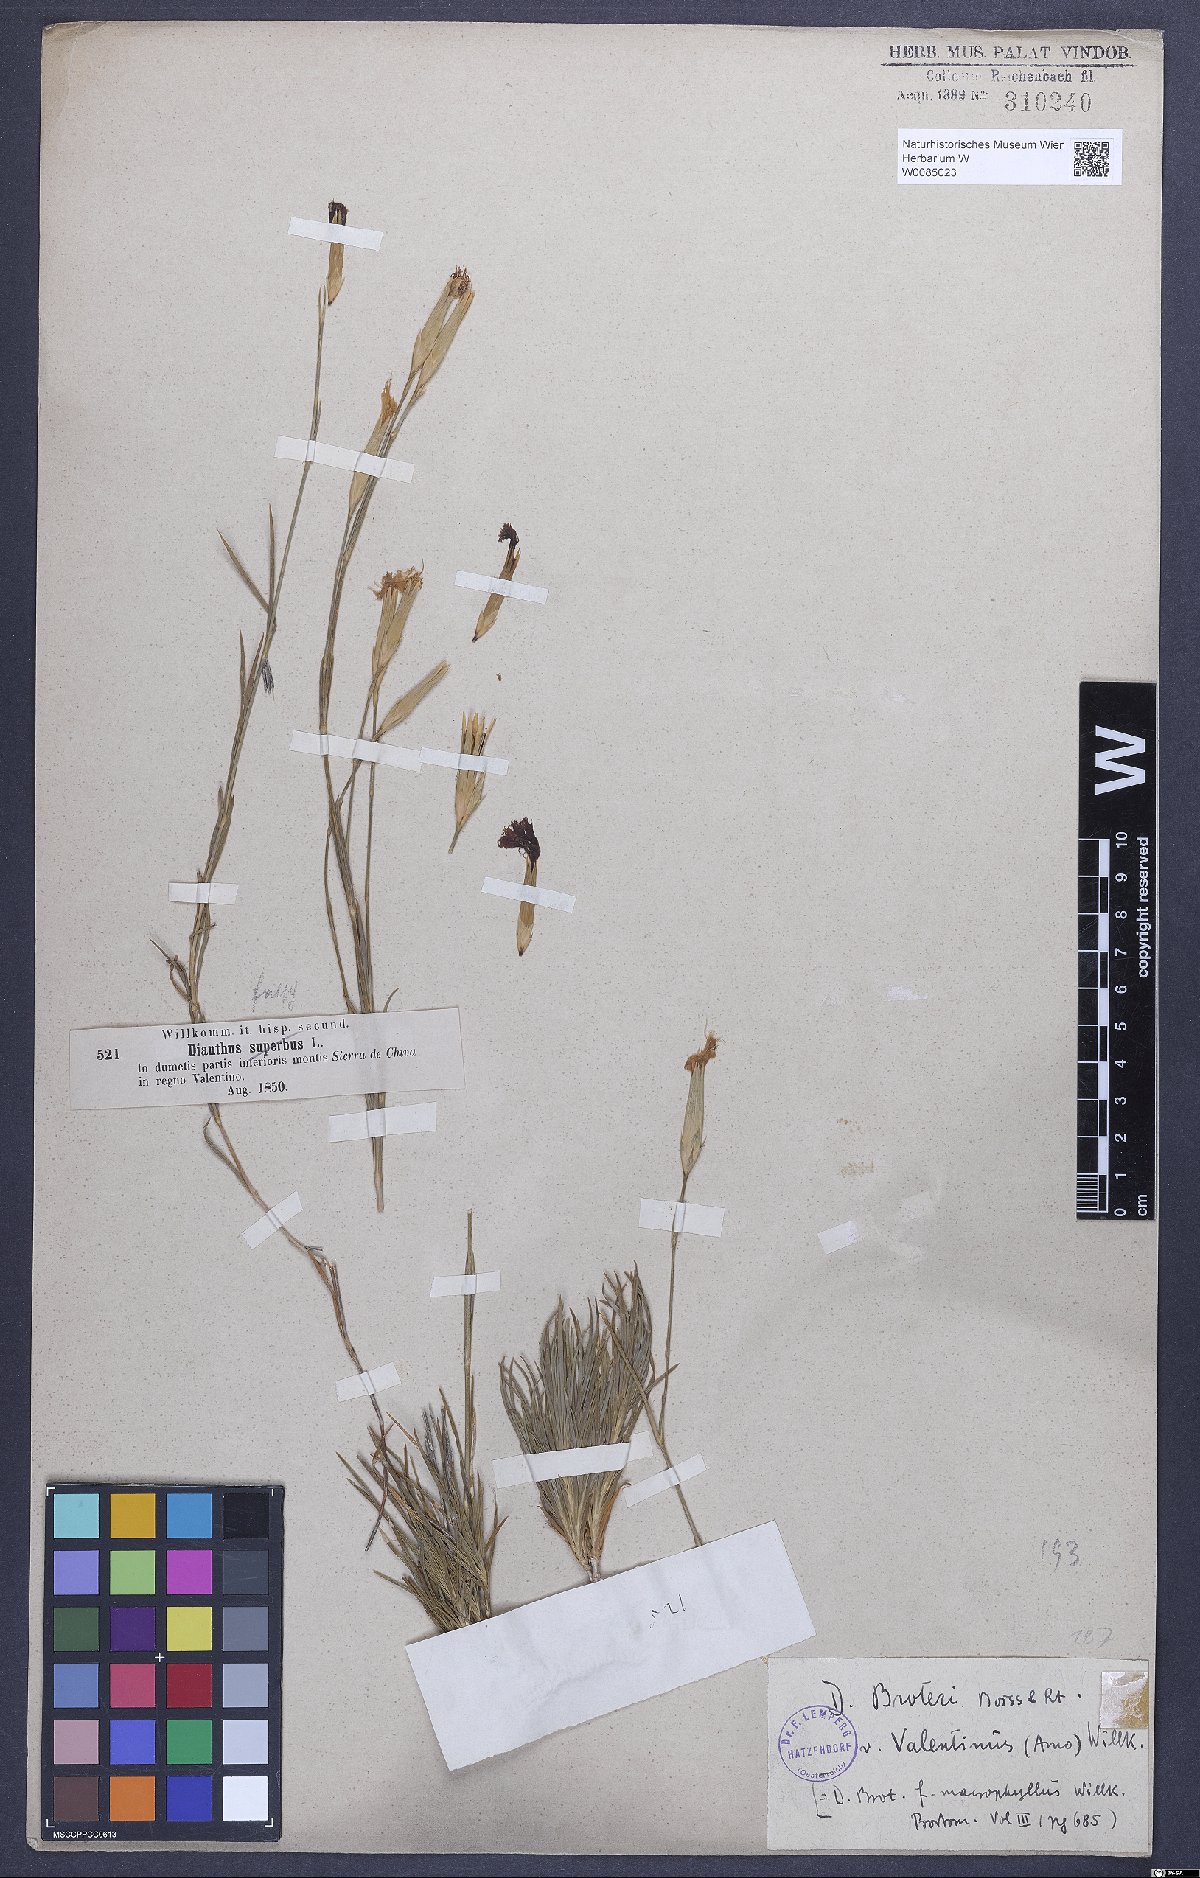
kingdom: Plantae
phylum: Tracheophyta
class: Magnoliopsida
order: Caryophyllales
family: Caryophyllaceae
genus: Dianthus
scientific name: Dianthus broteri
